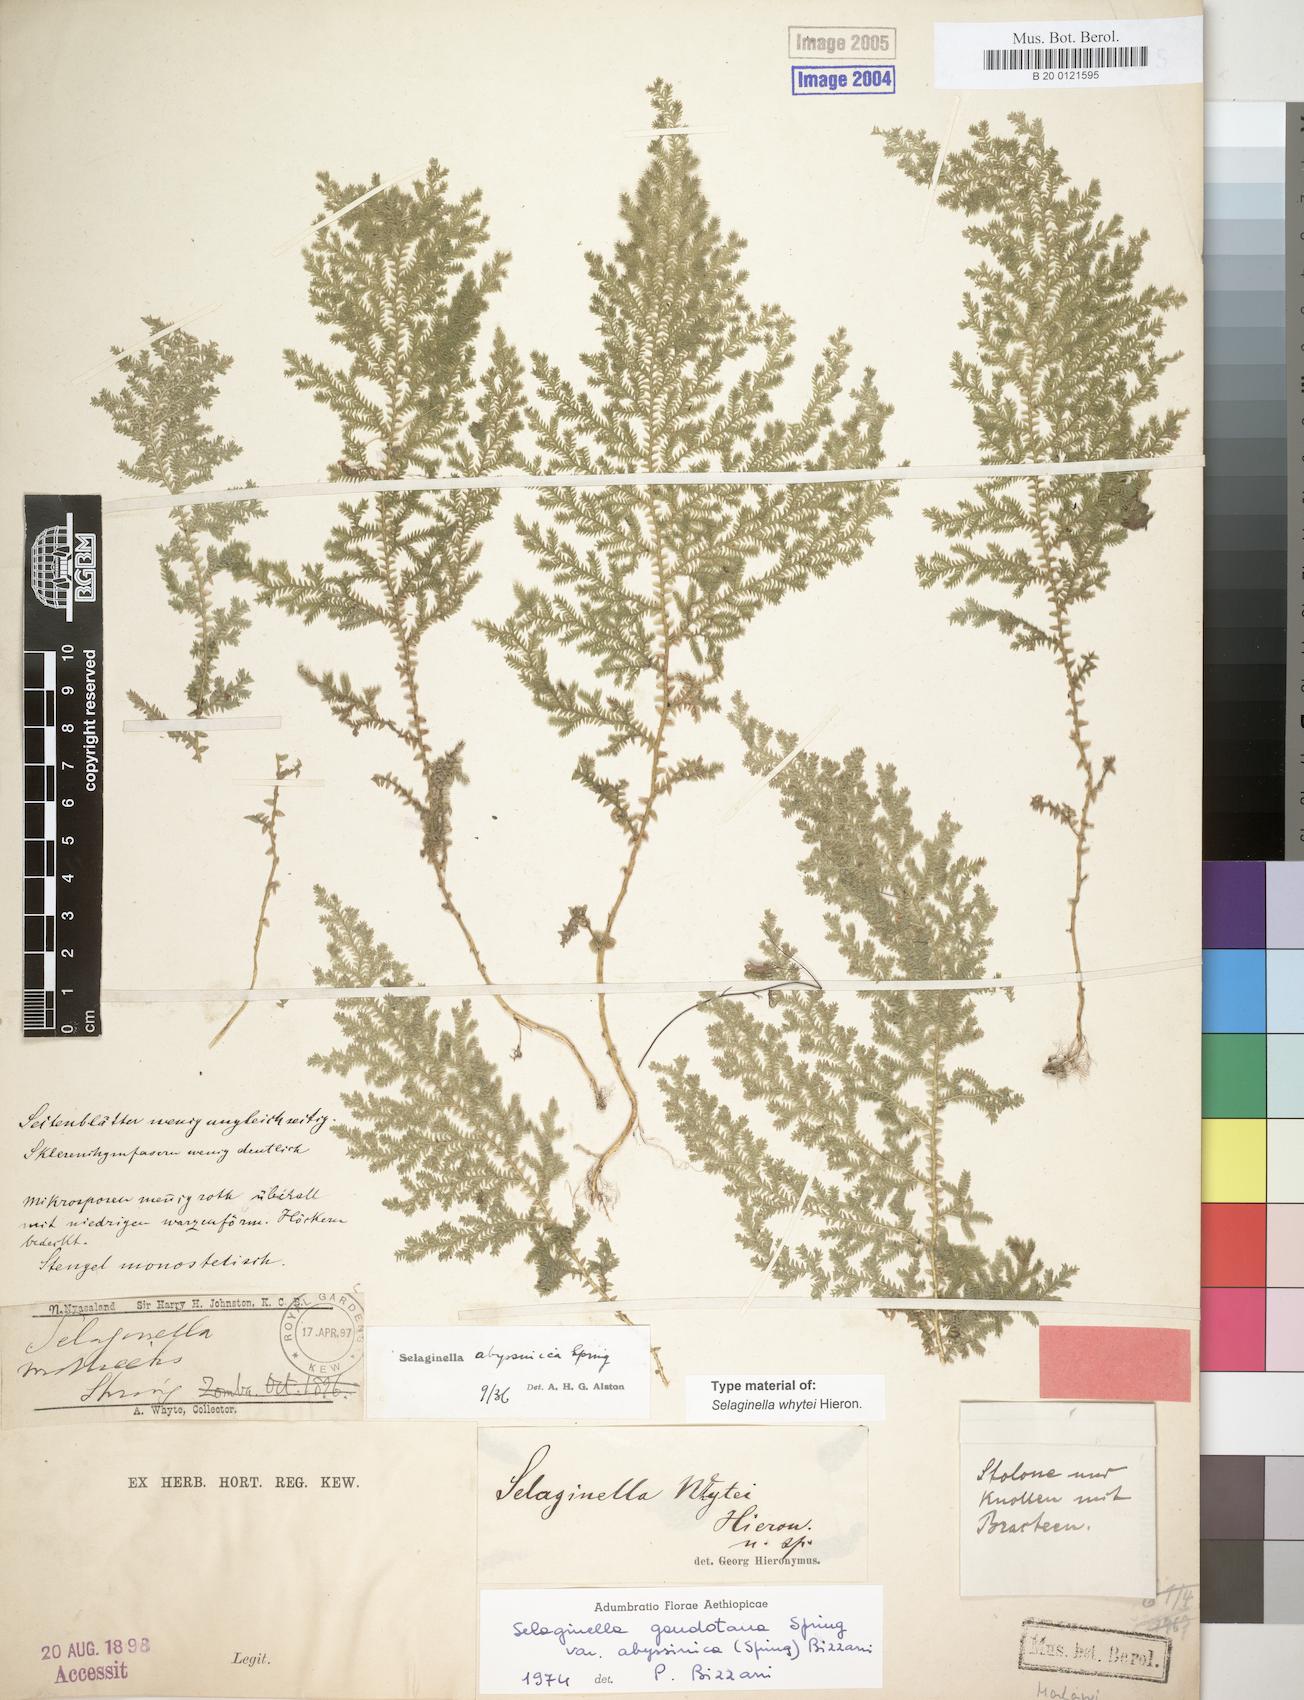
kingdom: Plantae
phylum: Tracheophyta
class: Lycopodiopsida
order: Selaginellales
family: Selaginellaceae
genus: Selaginella
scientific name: Selaginella goudotiana
